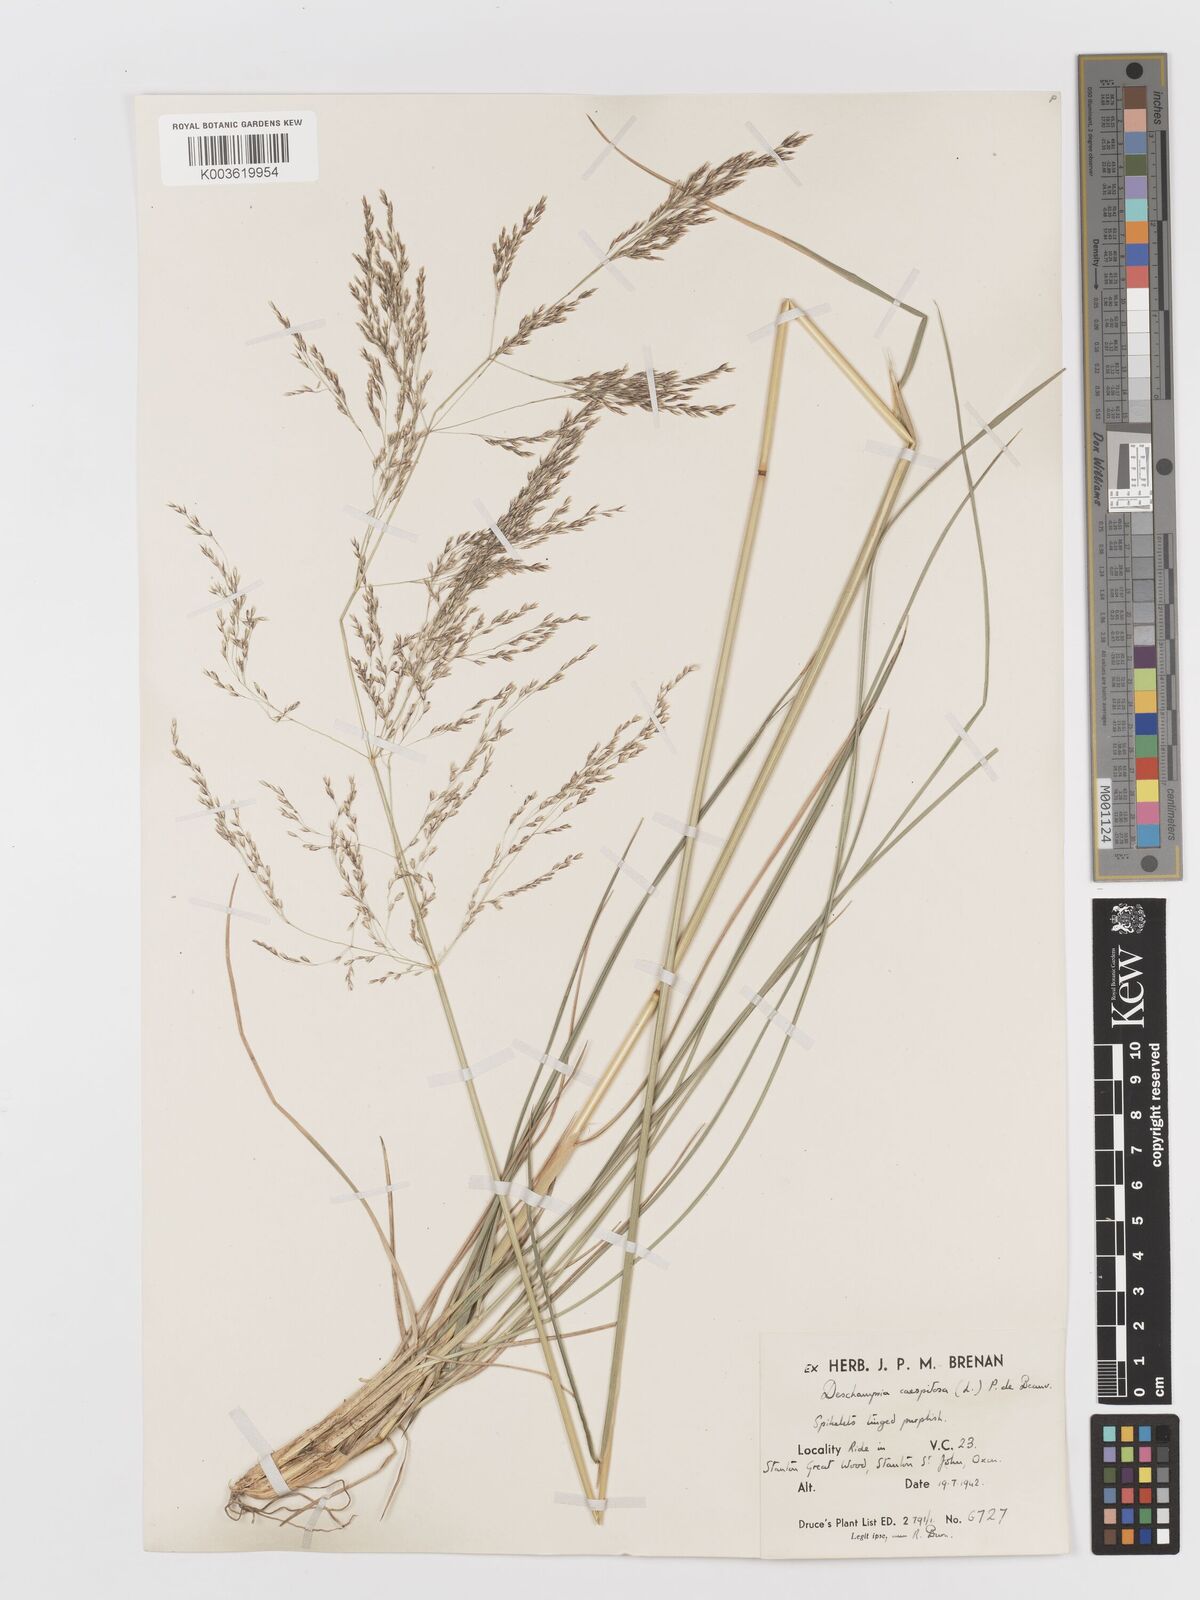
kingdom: Plantae
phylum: Tracheophyta
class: Liliopsida
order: Poales
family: Poaceae
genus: Deschampsia
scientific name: Deschampsia cespitosa
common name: Tufted hair-grass
